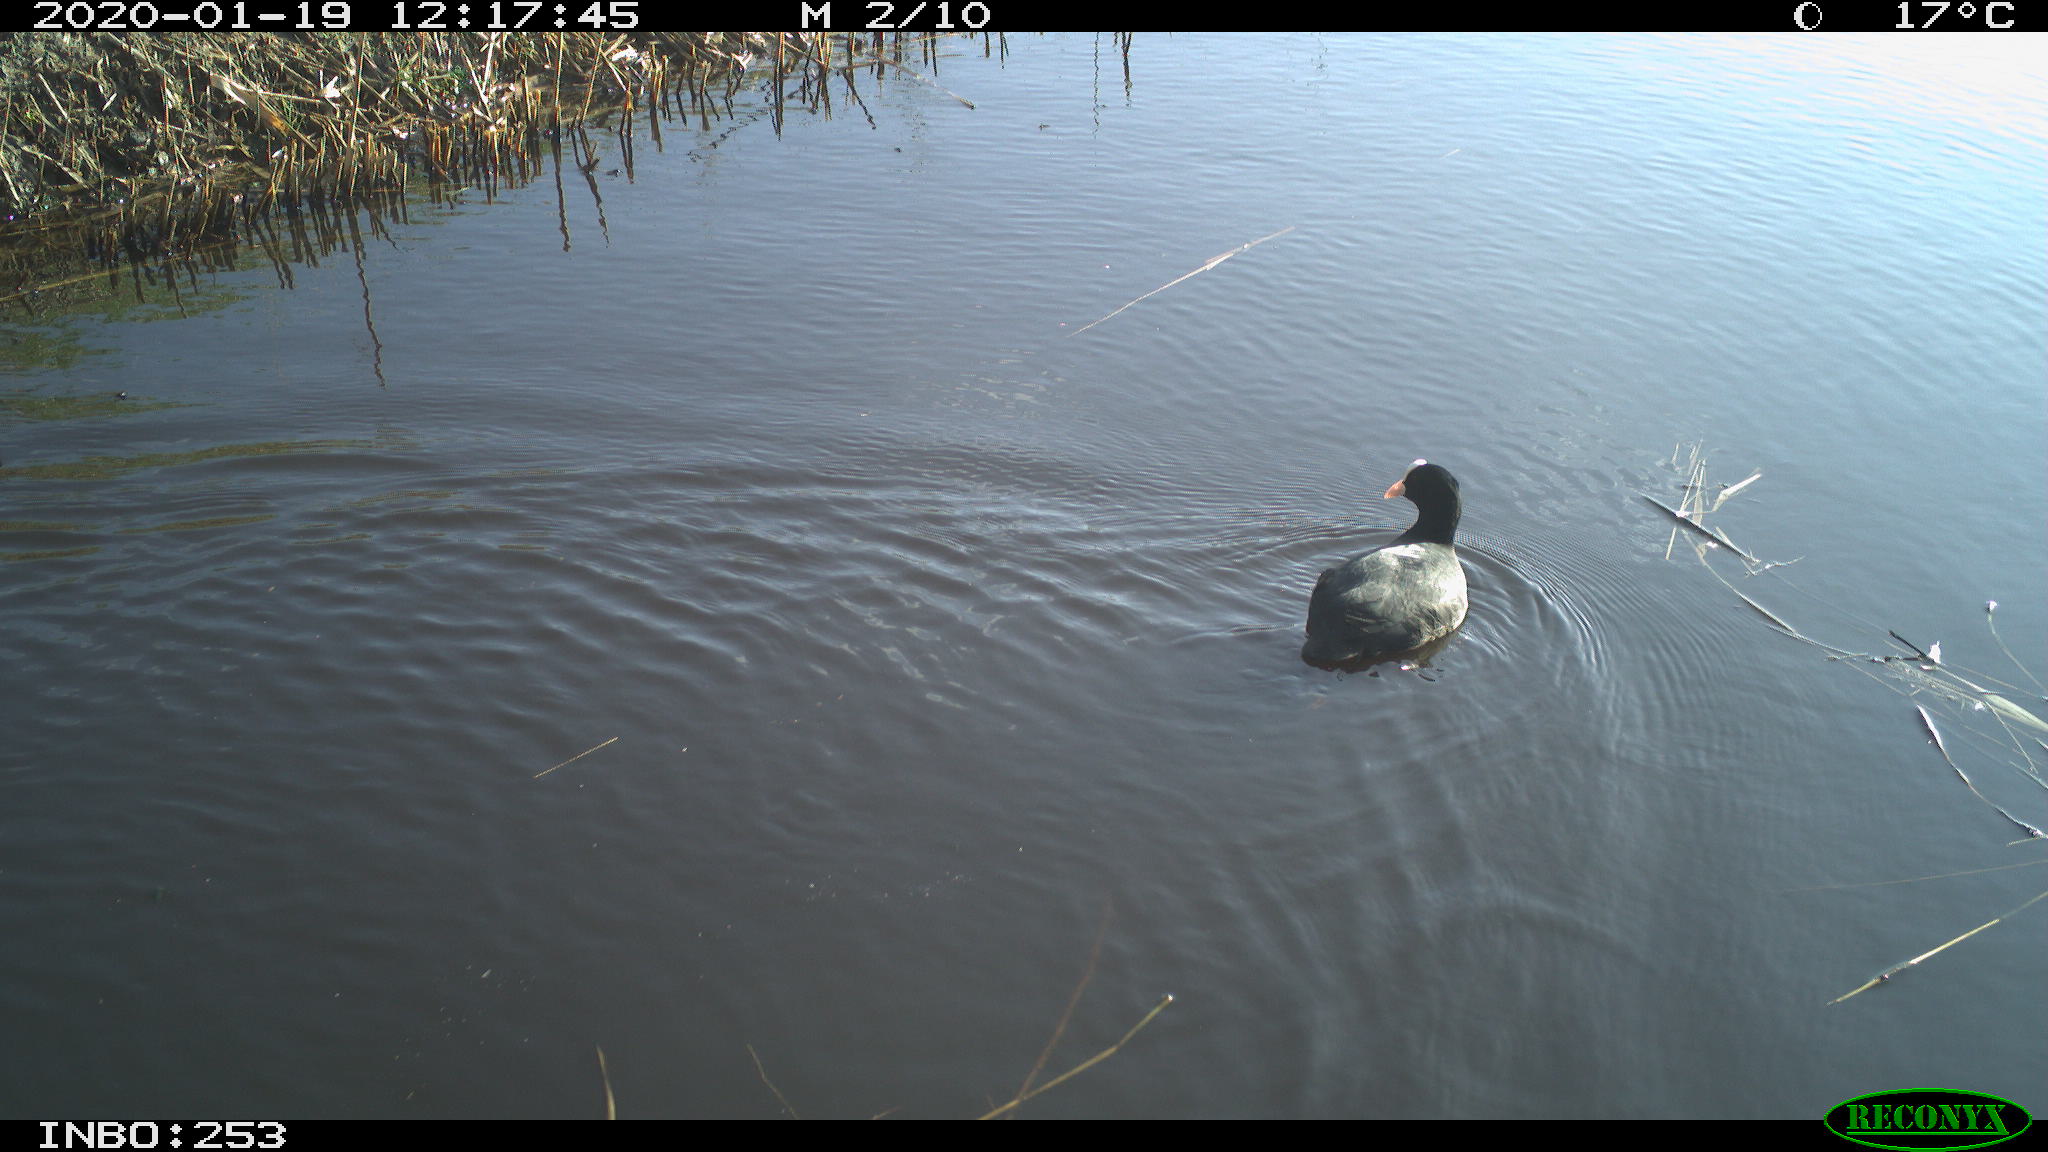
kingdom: Animalia
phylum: Chordata
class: Aves
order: Gruiformes
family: Rallidae
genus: Fulica
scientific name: Fulica atra
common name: Eurasian coot
